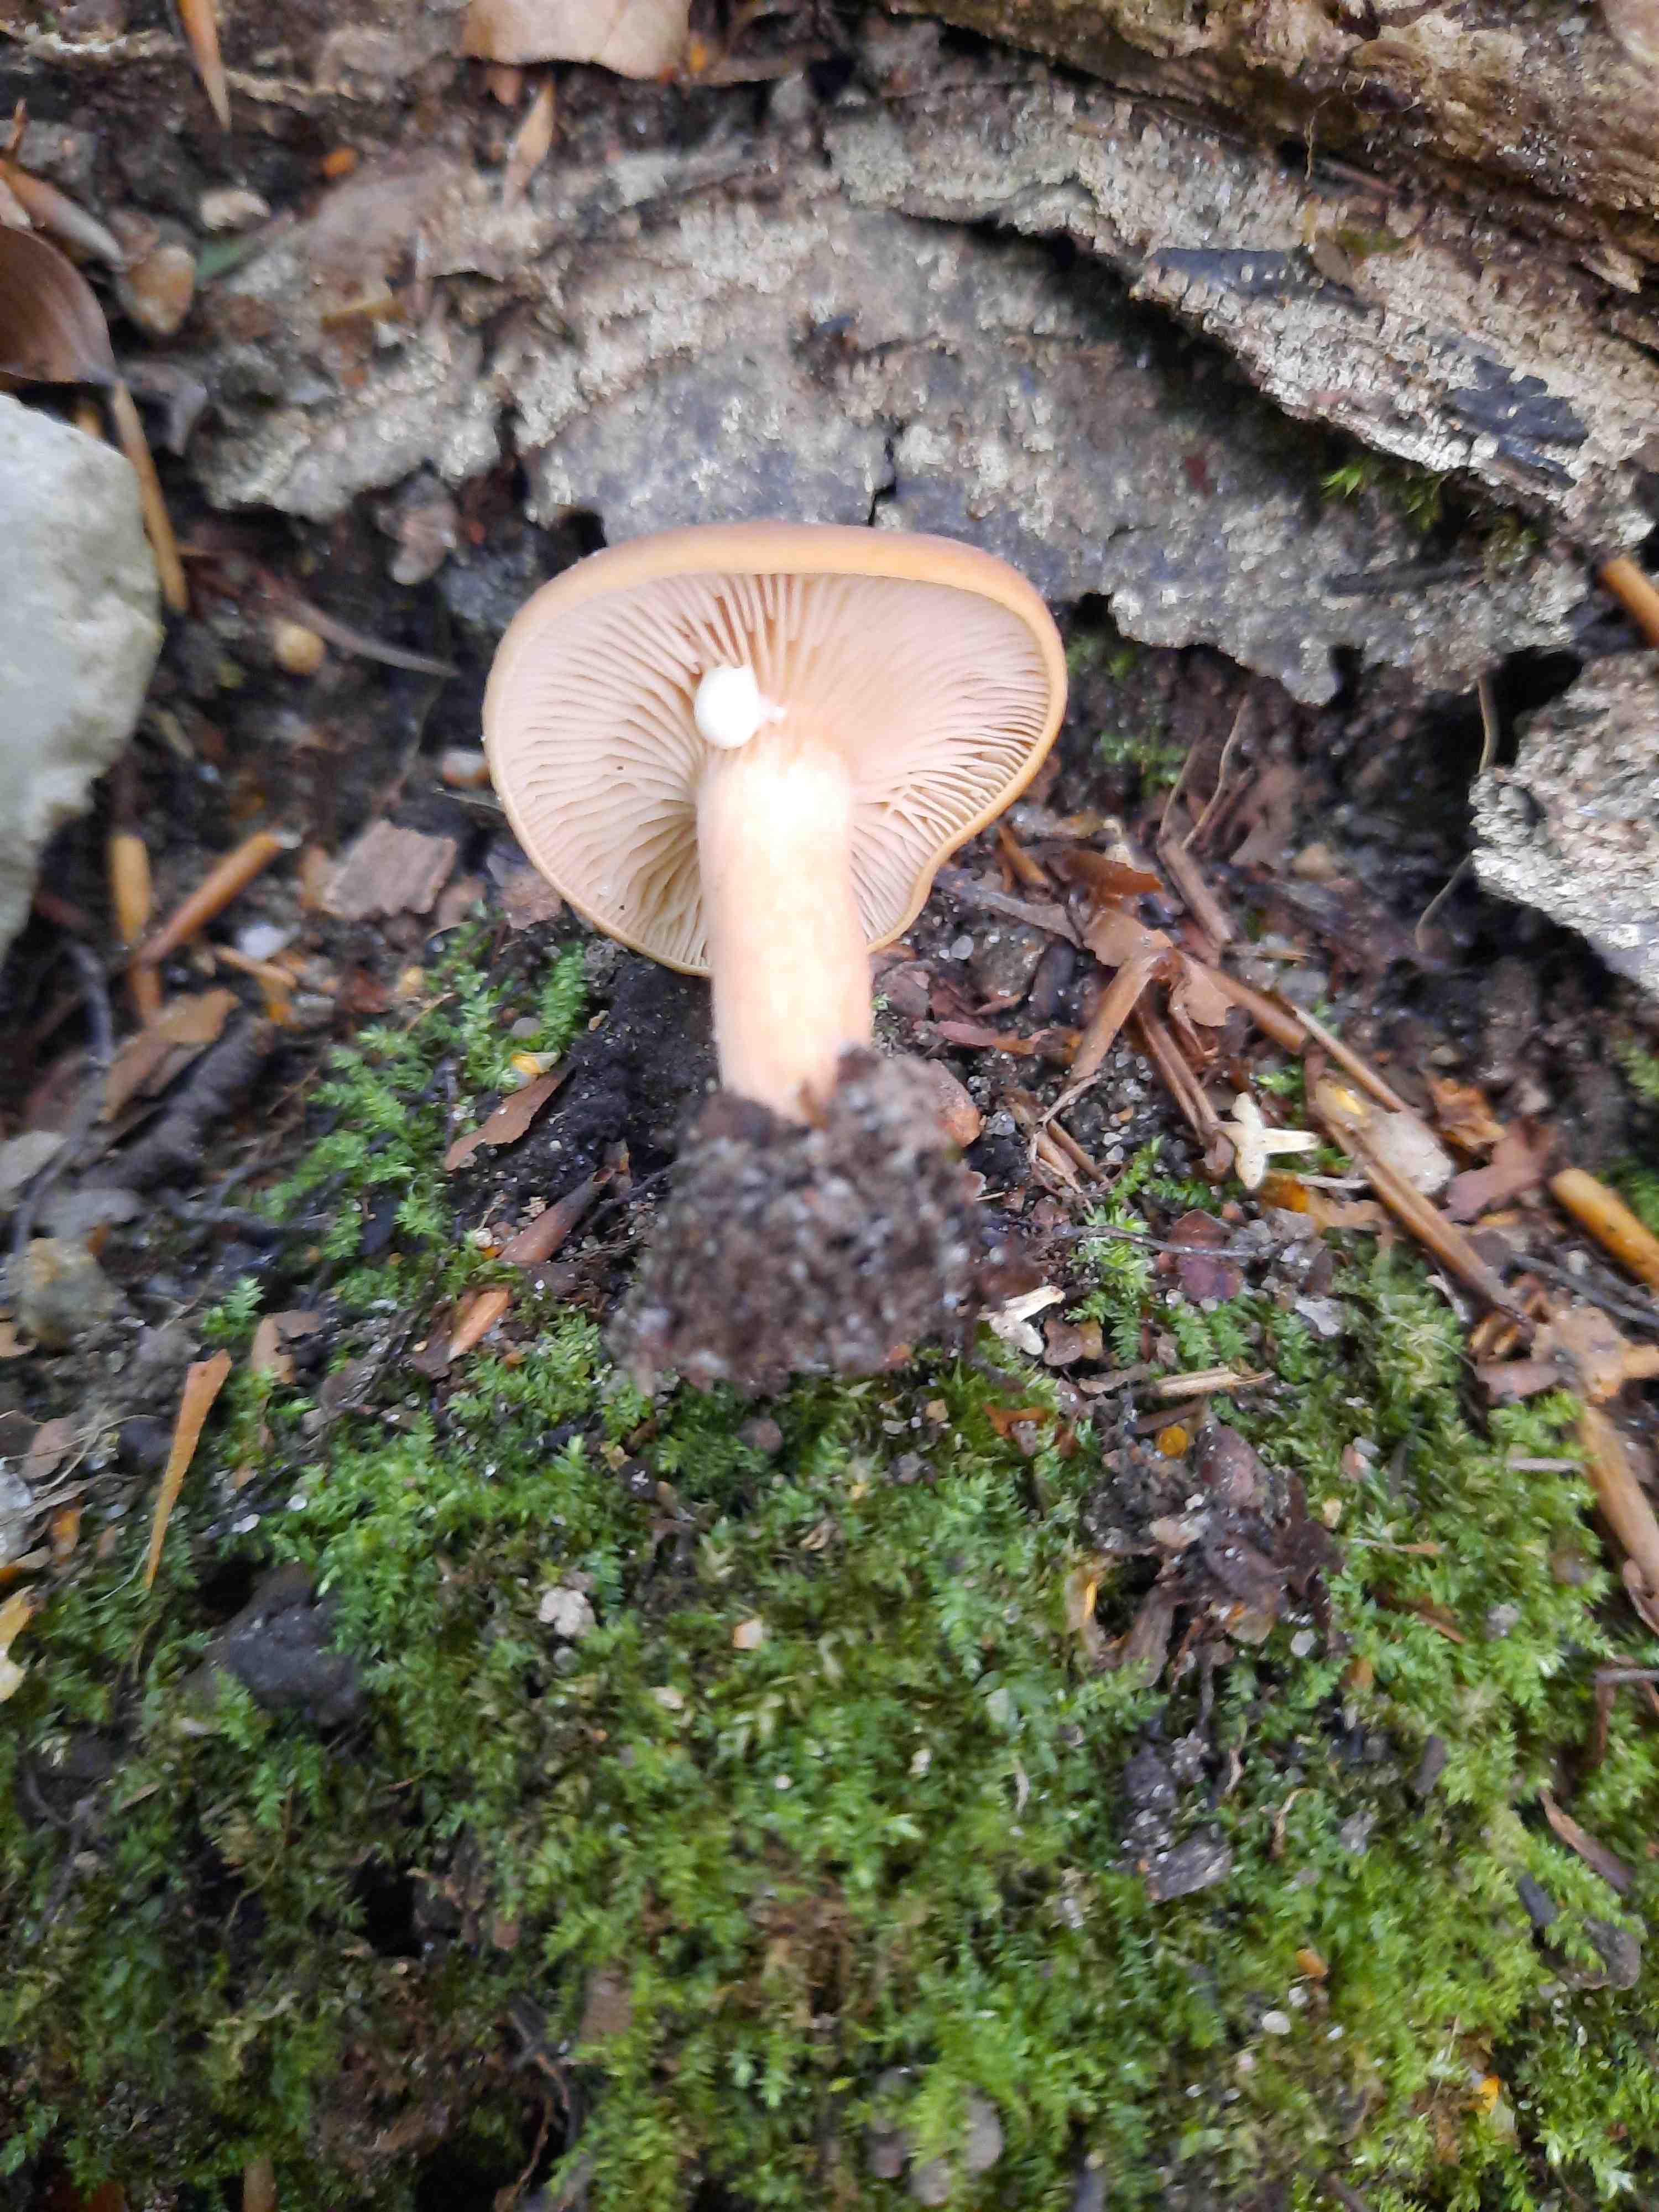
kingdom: Fungi
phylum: Basidiomycota
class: Agaricomycetes
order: Russulales
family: Russulaceae
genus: Lactarius
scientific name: Lactarius
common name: mælkehat
